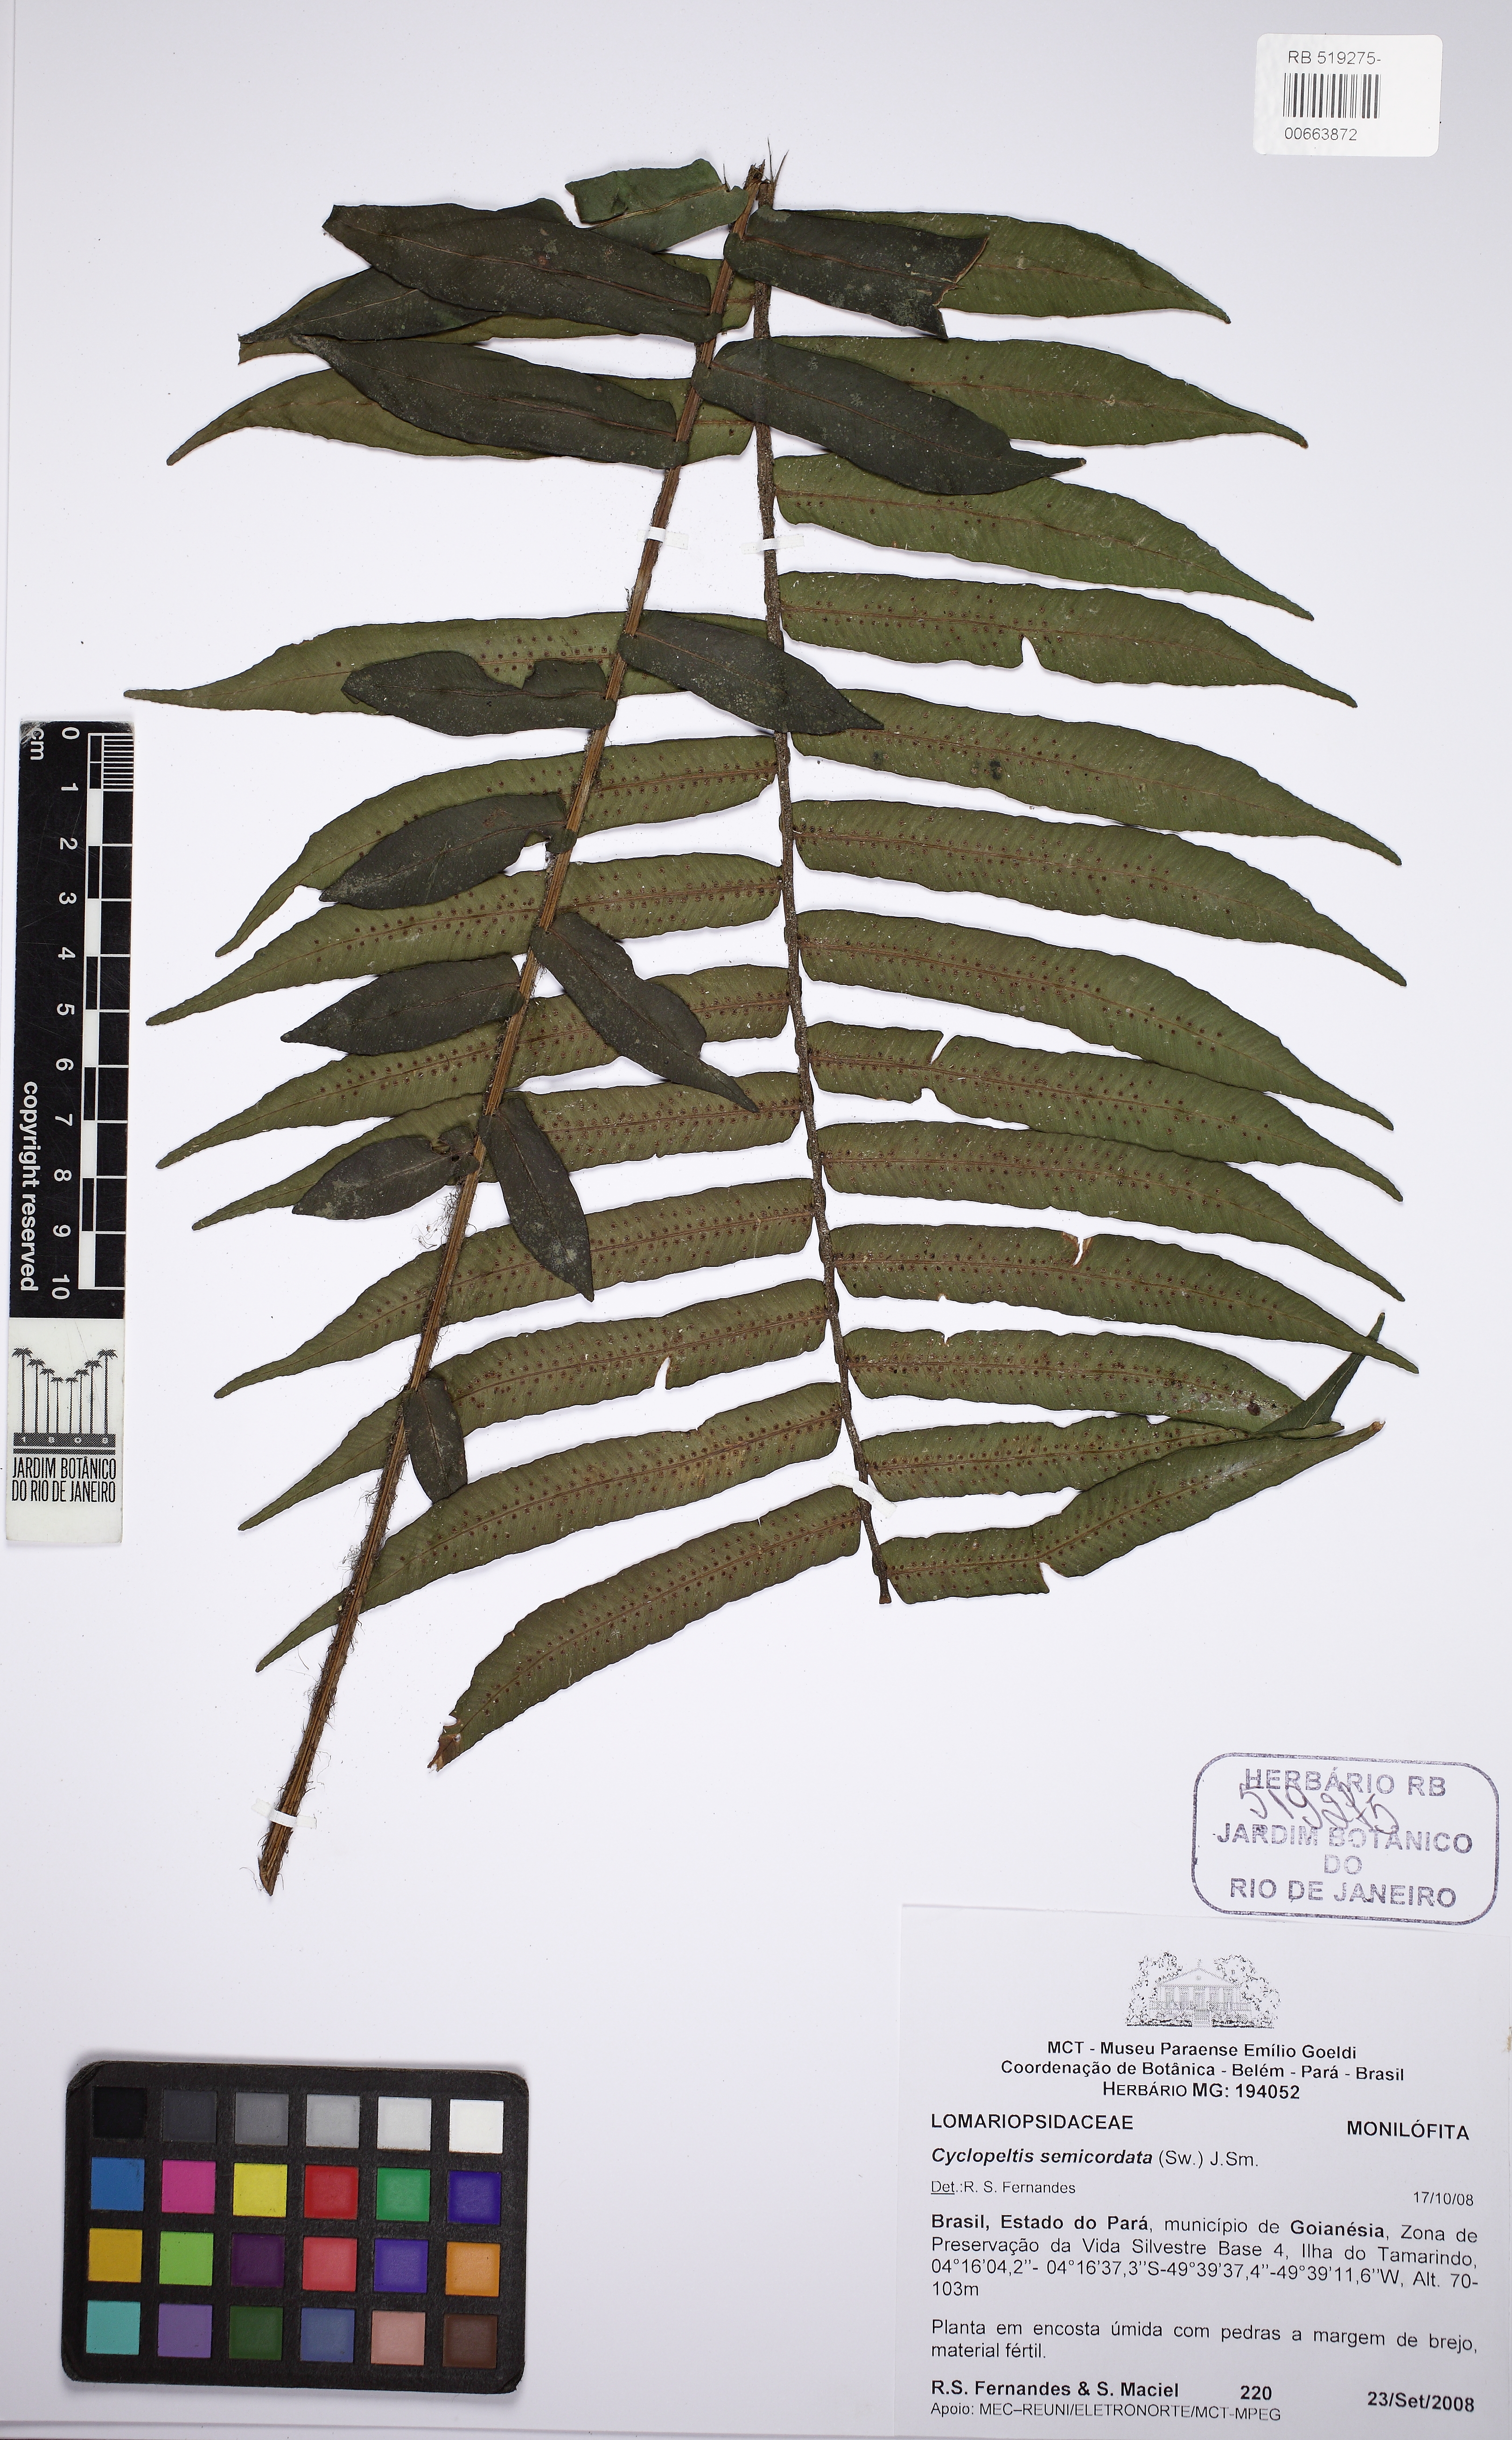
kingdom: Plantae
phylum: Tracheophyta
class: Polypodiopsida
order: Polypodiales
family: Lomariopsidaceae
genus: Cyclopeltis
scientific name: Cyclopeltis semicordata
